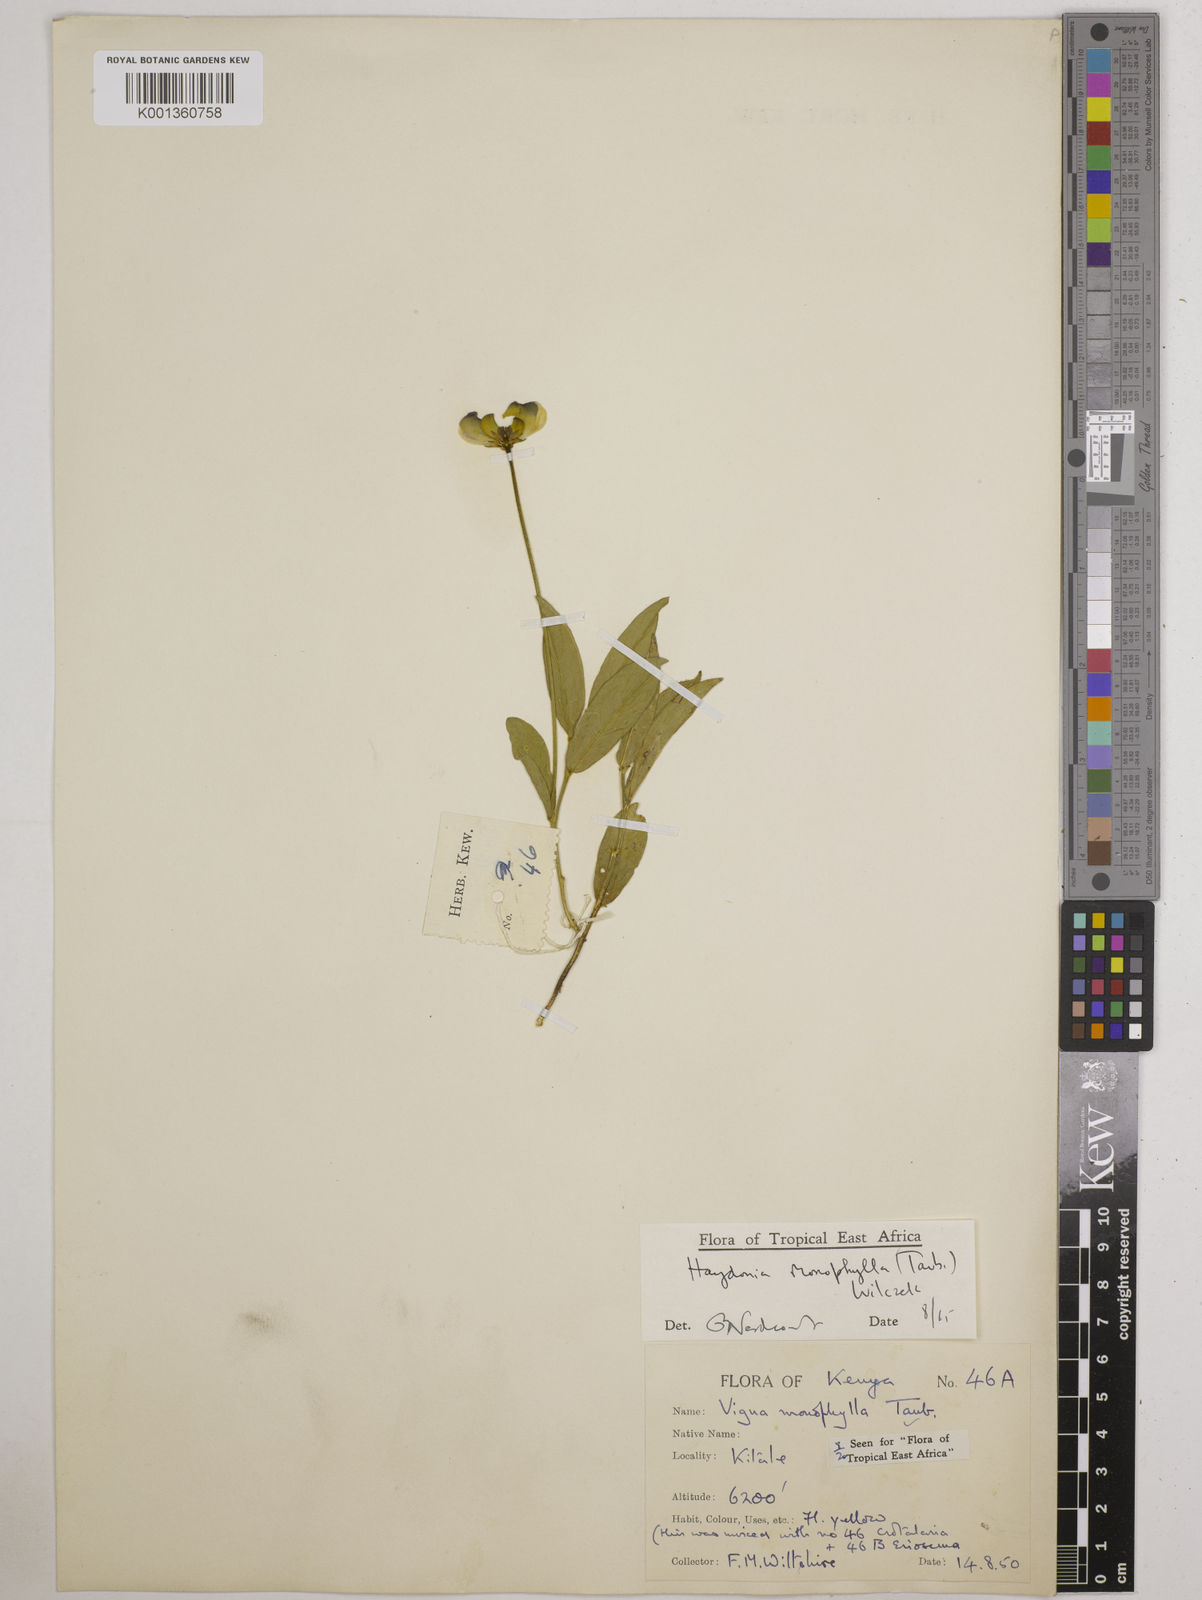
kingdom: Plantae
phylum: Tracheophyta
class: Magnoliopsida
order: Fabales
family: Fabaceae
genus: Vigna
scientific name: Vigna monophylla
